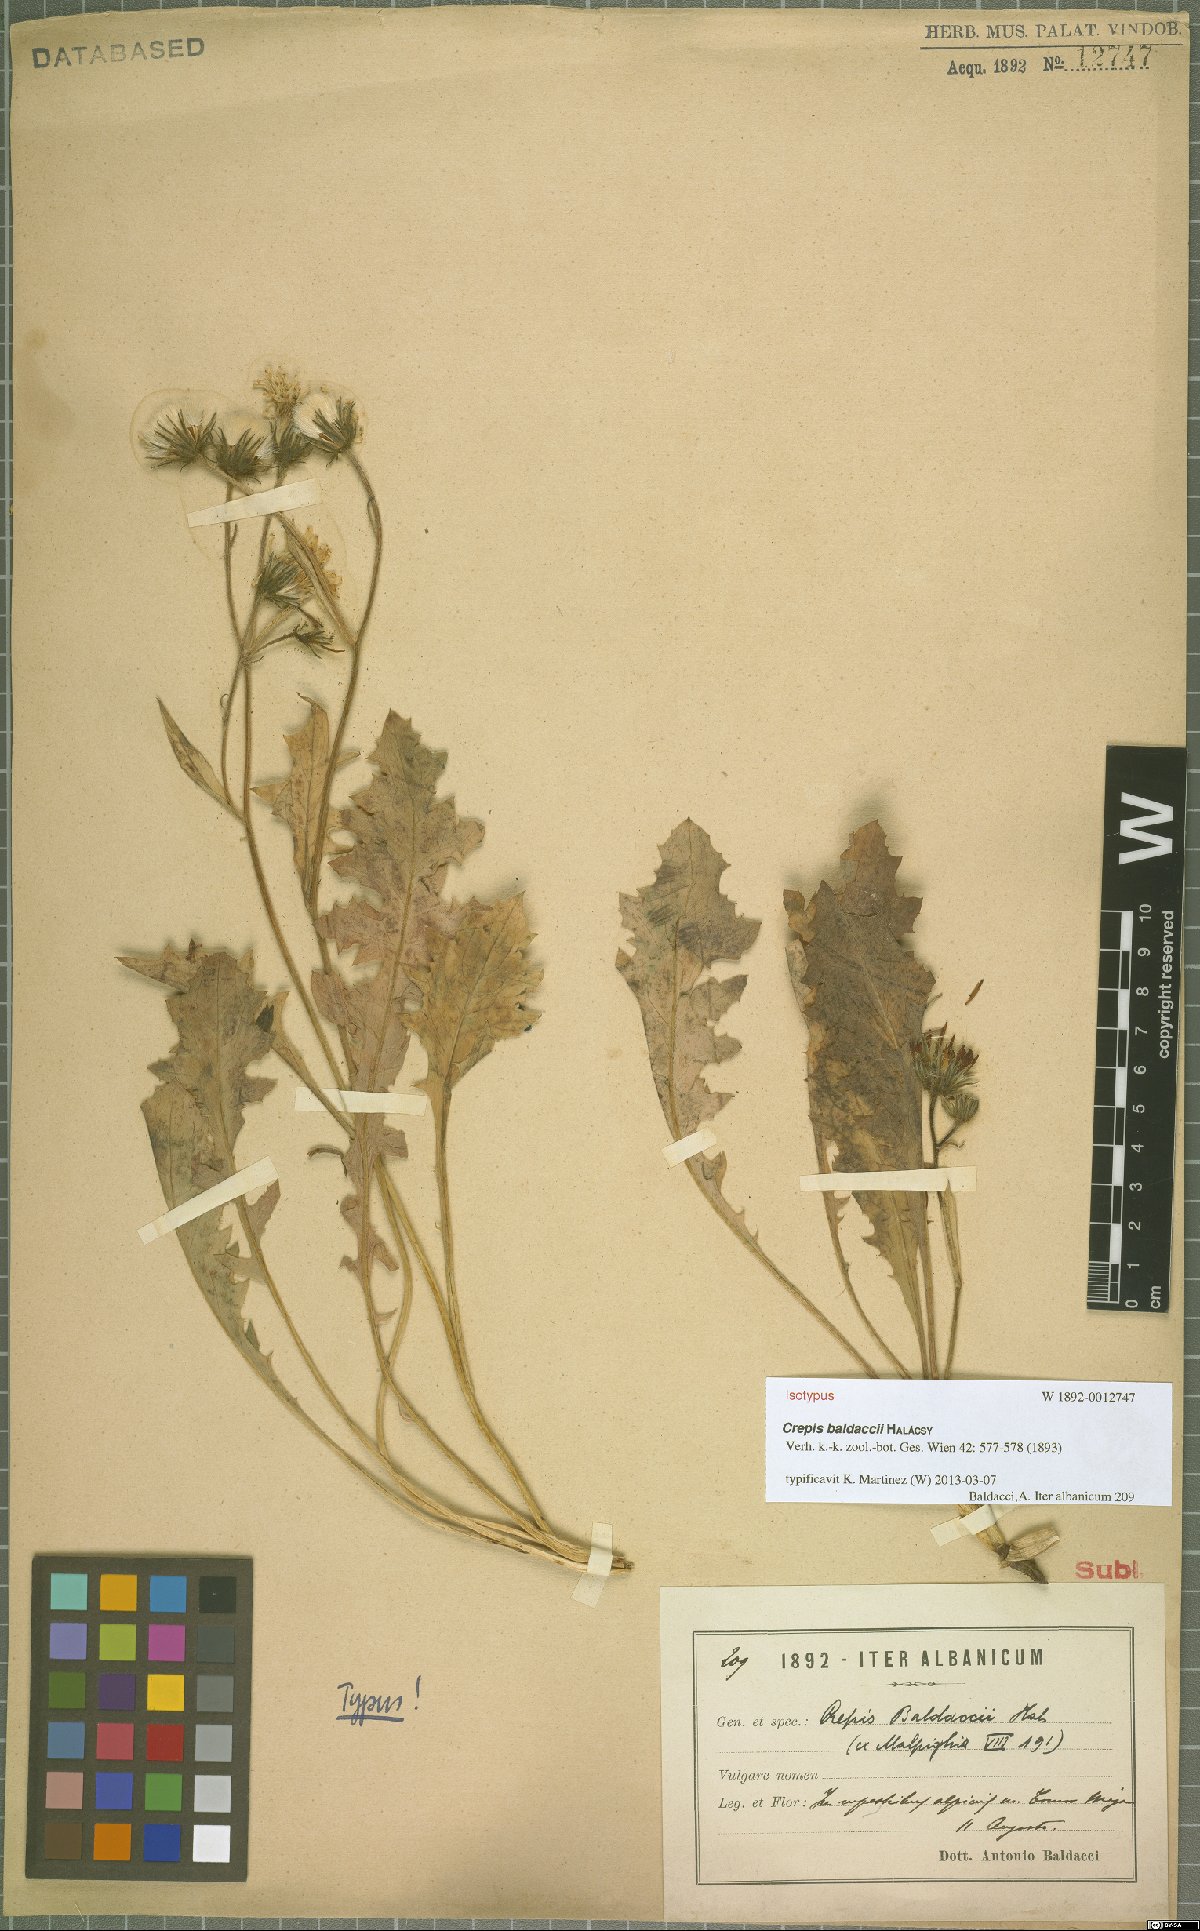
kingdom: Plantae
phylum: Tracheophyta
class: Magnoliopsida
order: Asterales
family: Asteraceae
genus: Crepis
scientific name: Crepis baldaccii
